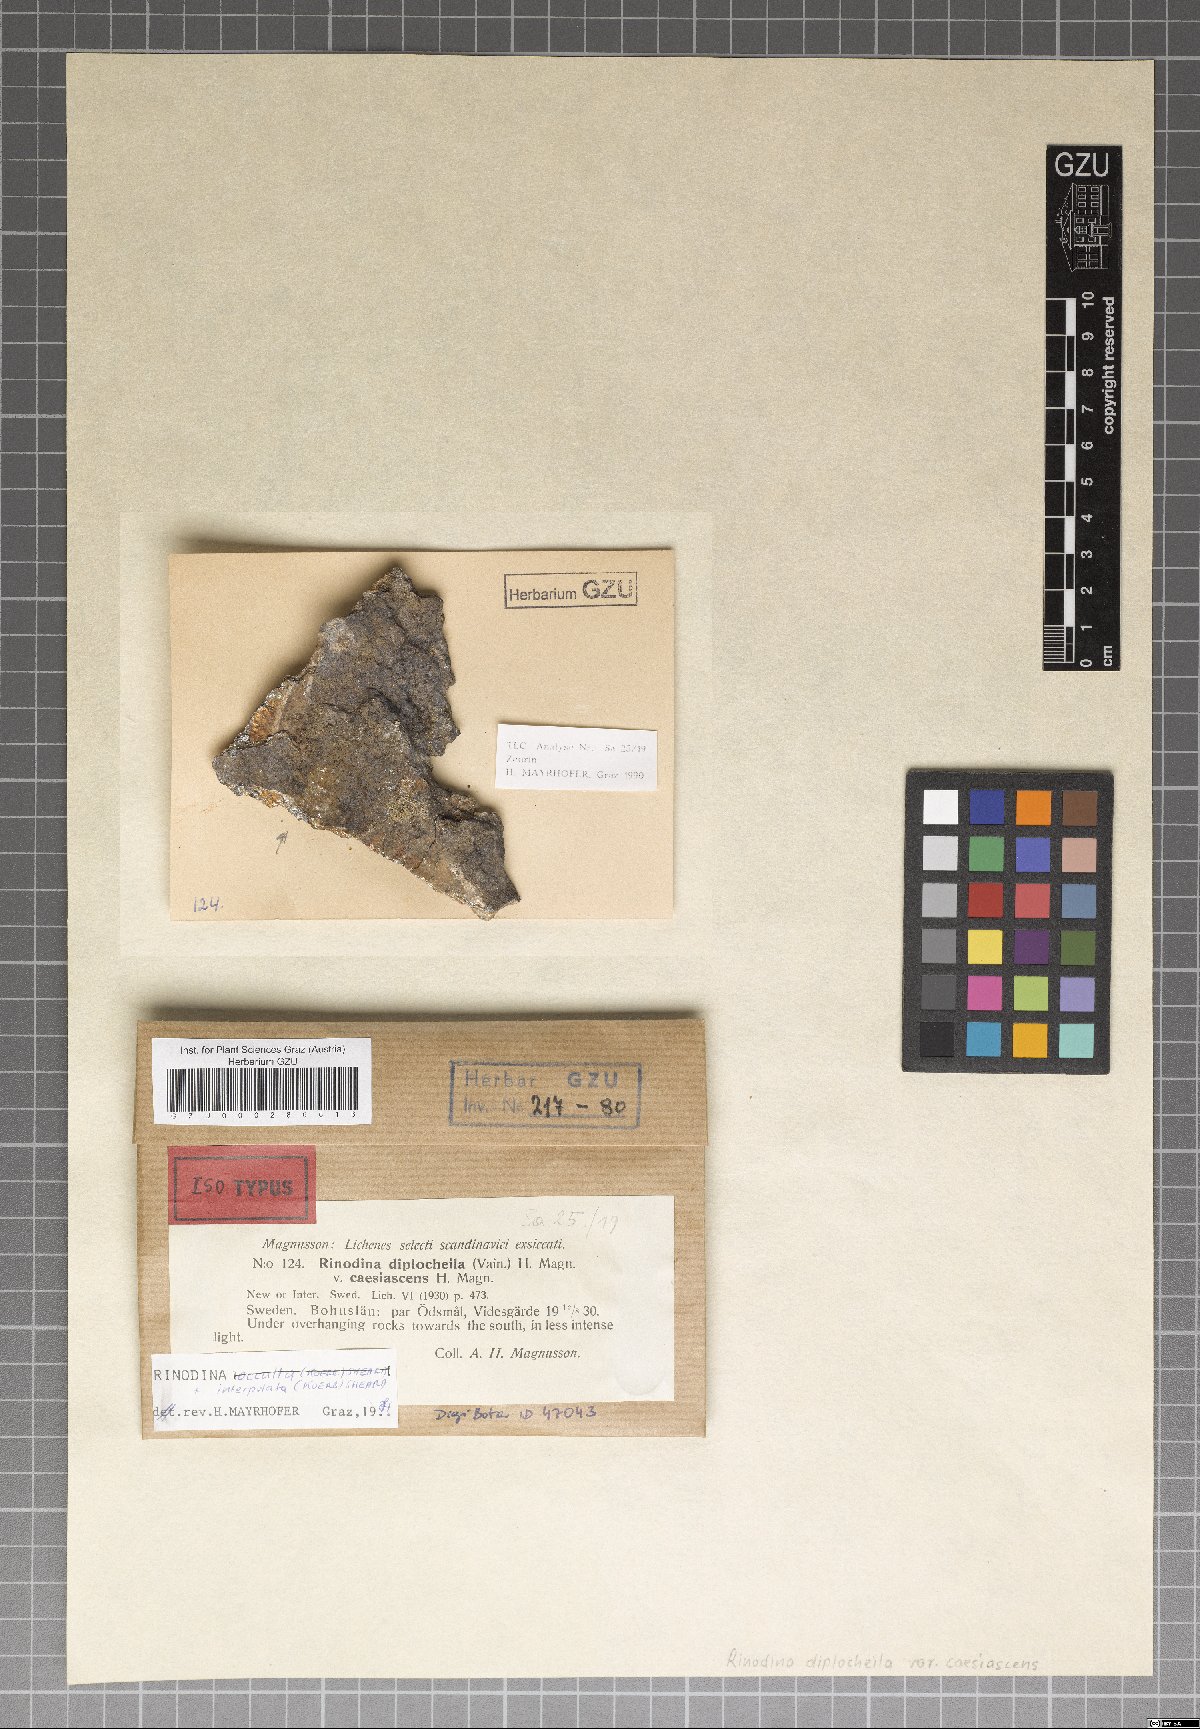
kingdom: Fungi
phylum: Ascomycota
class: Lecanoromycetes
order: Caliciales
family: Physciaceae
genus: Rinodina
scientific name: Rinodina interpolata
